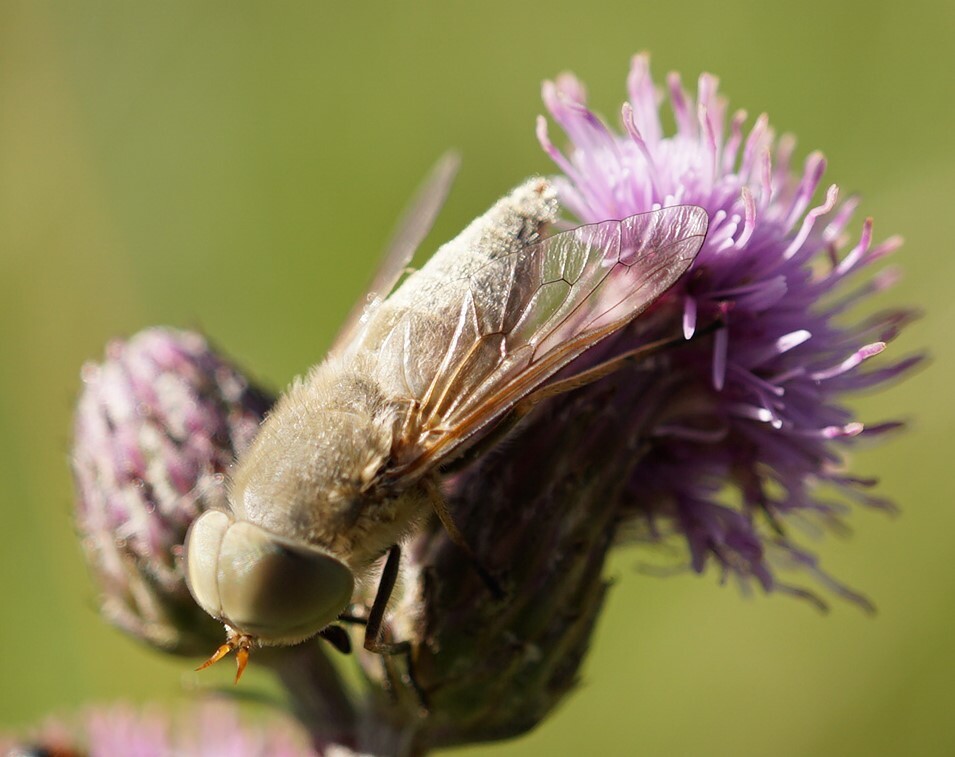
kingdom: Animalia
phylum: Arthropoda
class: Insecta
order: Diptera
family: Tabanidae
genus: Atylotus
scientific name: Atylotus rusticus
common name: Four-lined horsefly
